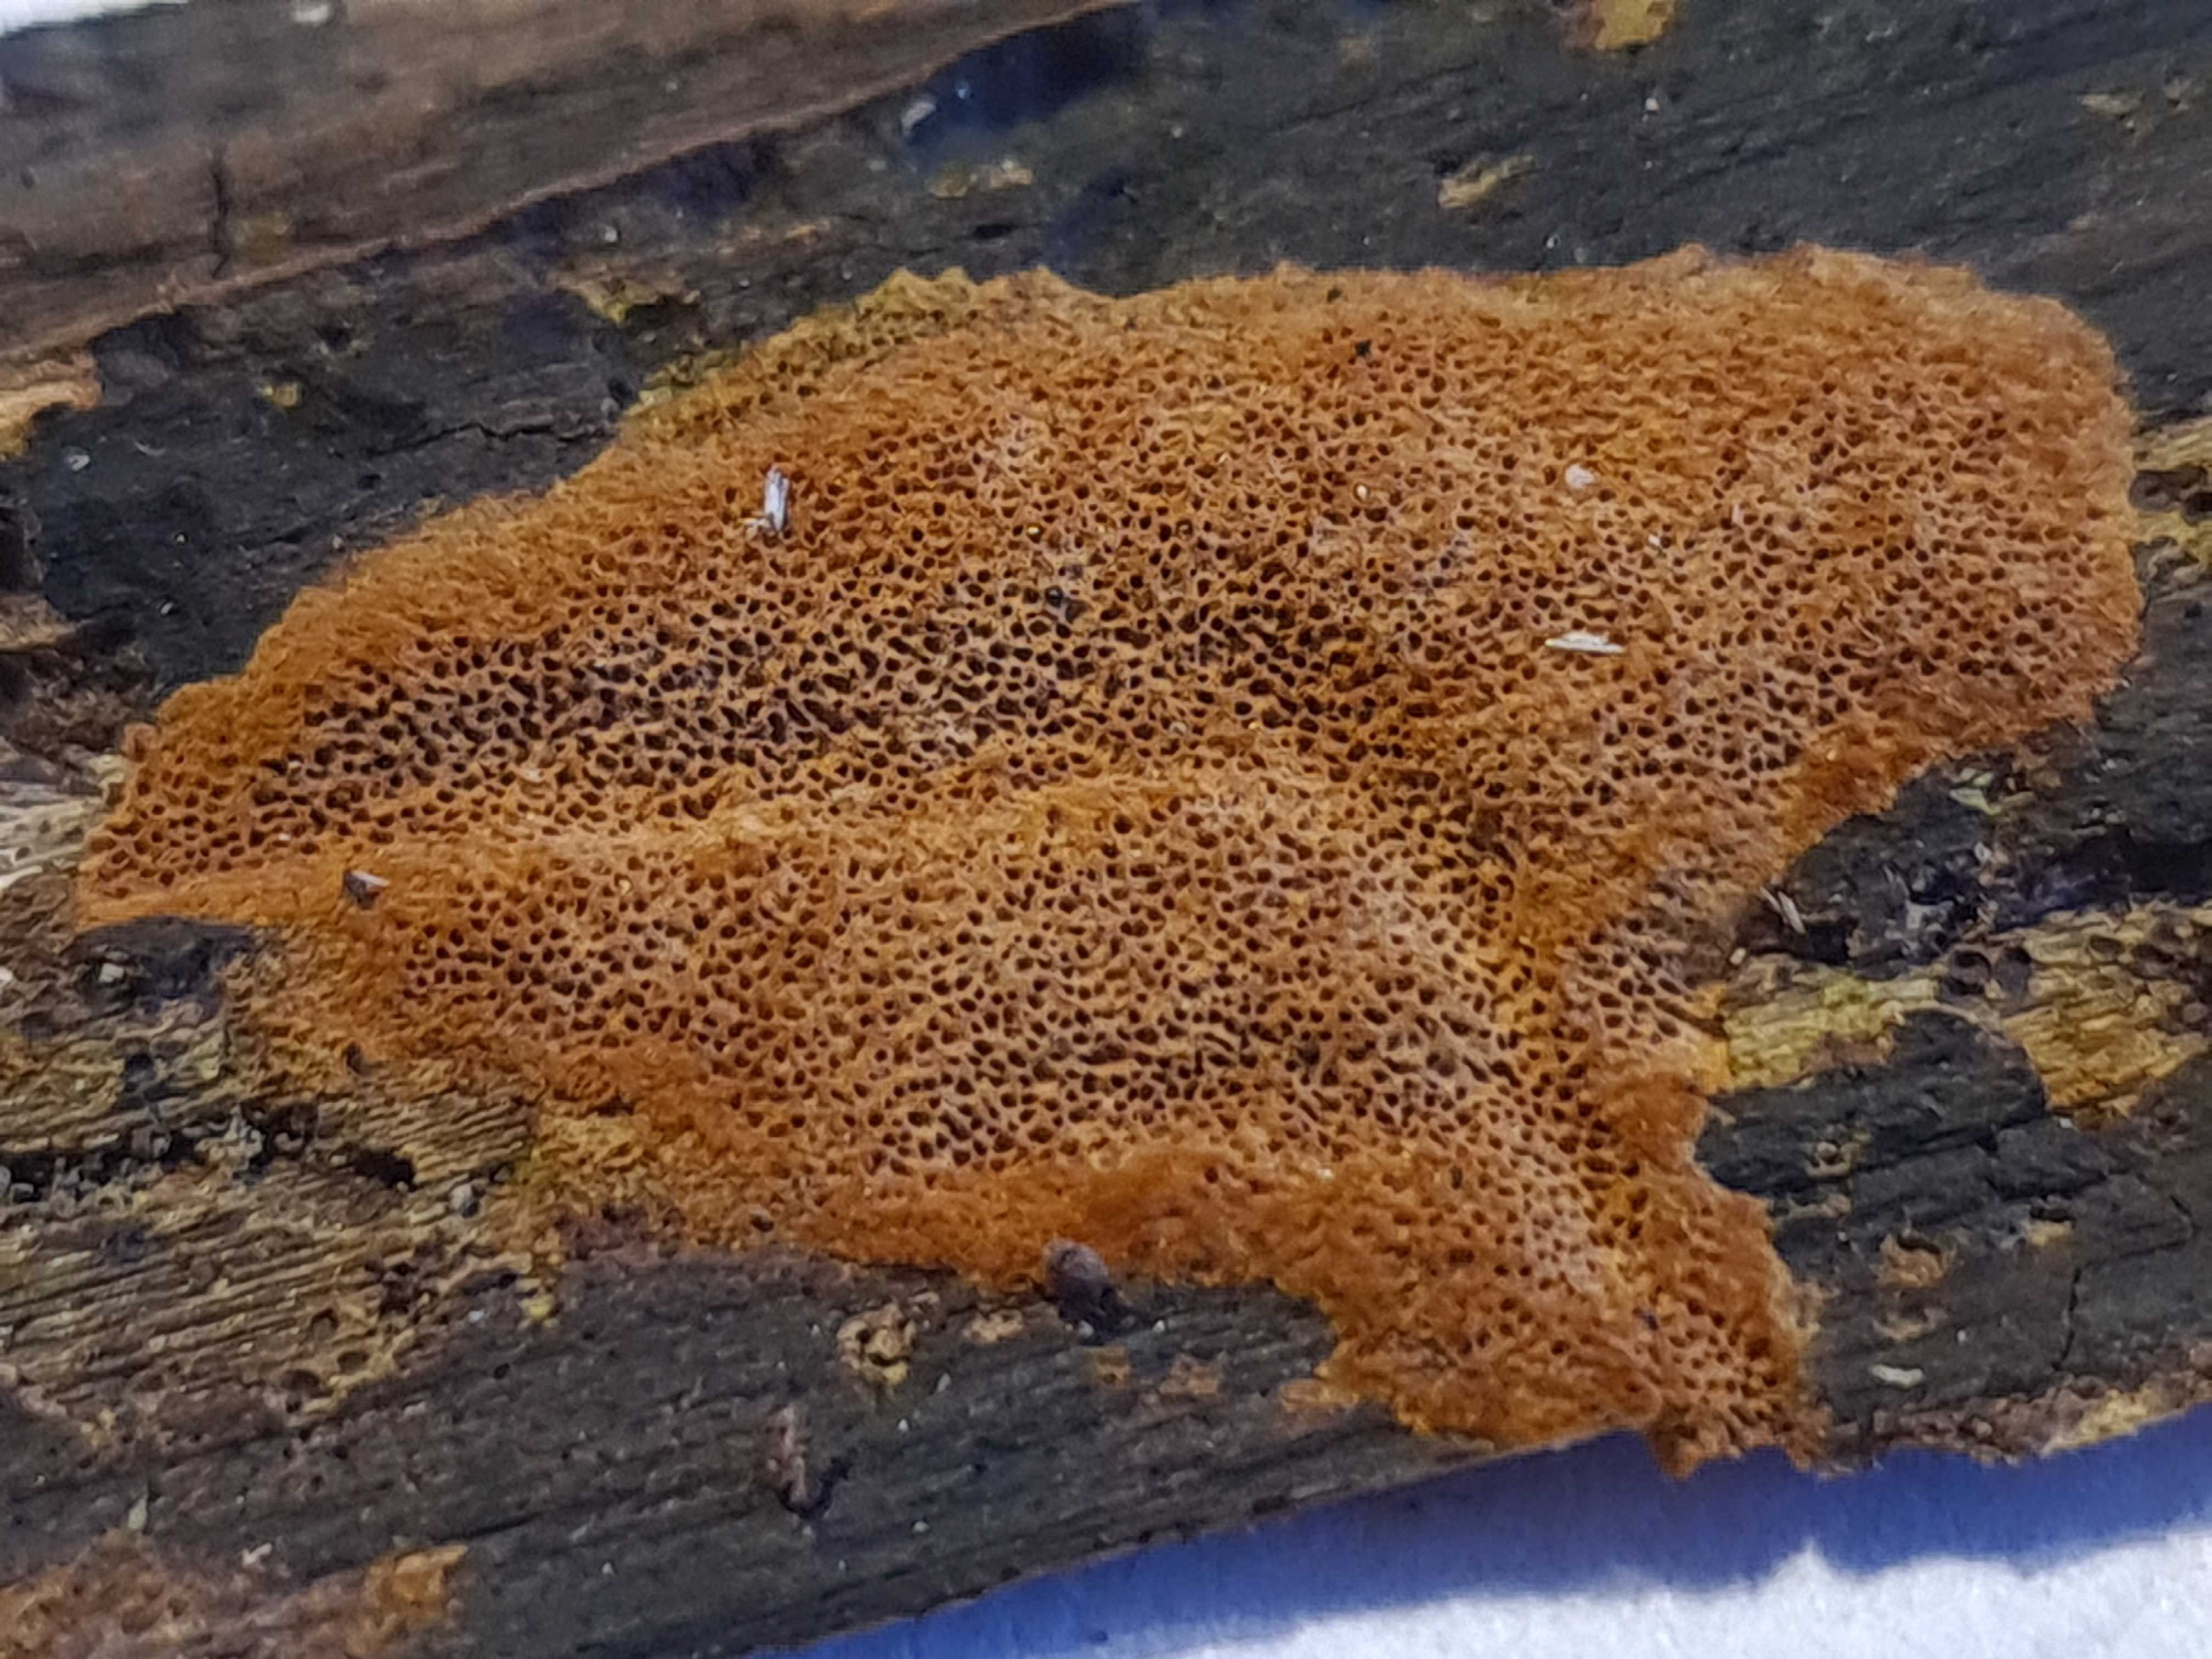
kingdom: Fungi
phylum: Basidiomycota
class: Agaricomycetes
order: Hymenochaetales
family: Hymenochaetaceae
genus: Fuscoporia
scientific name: Fuscoporia ferruginosa
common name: rustbrun ildporesvamp
